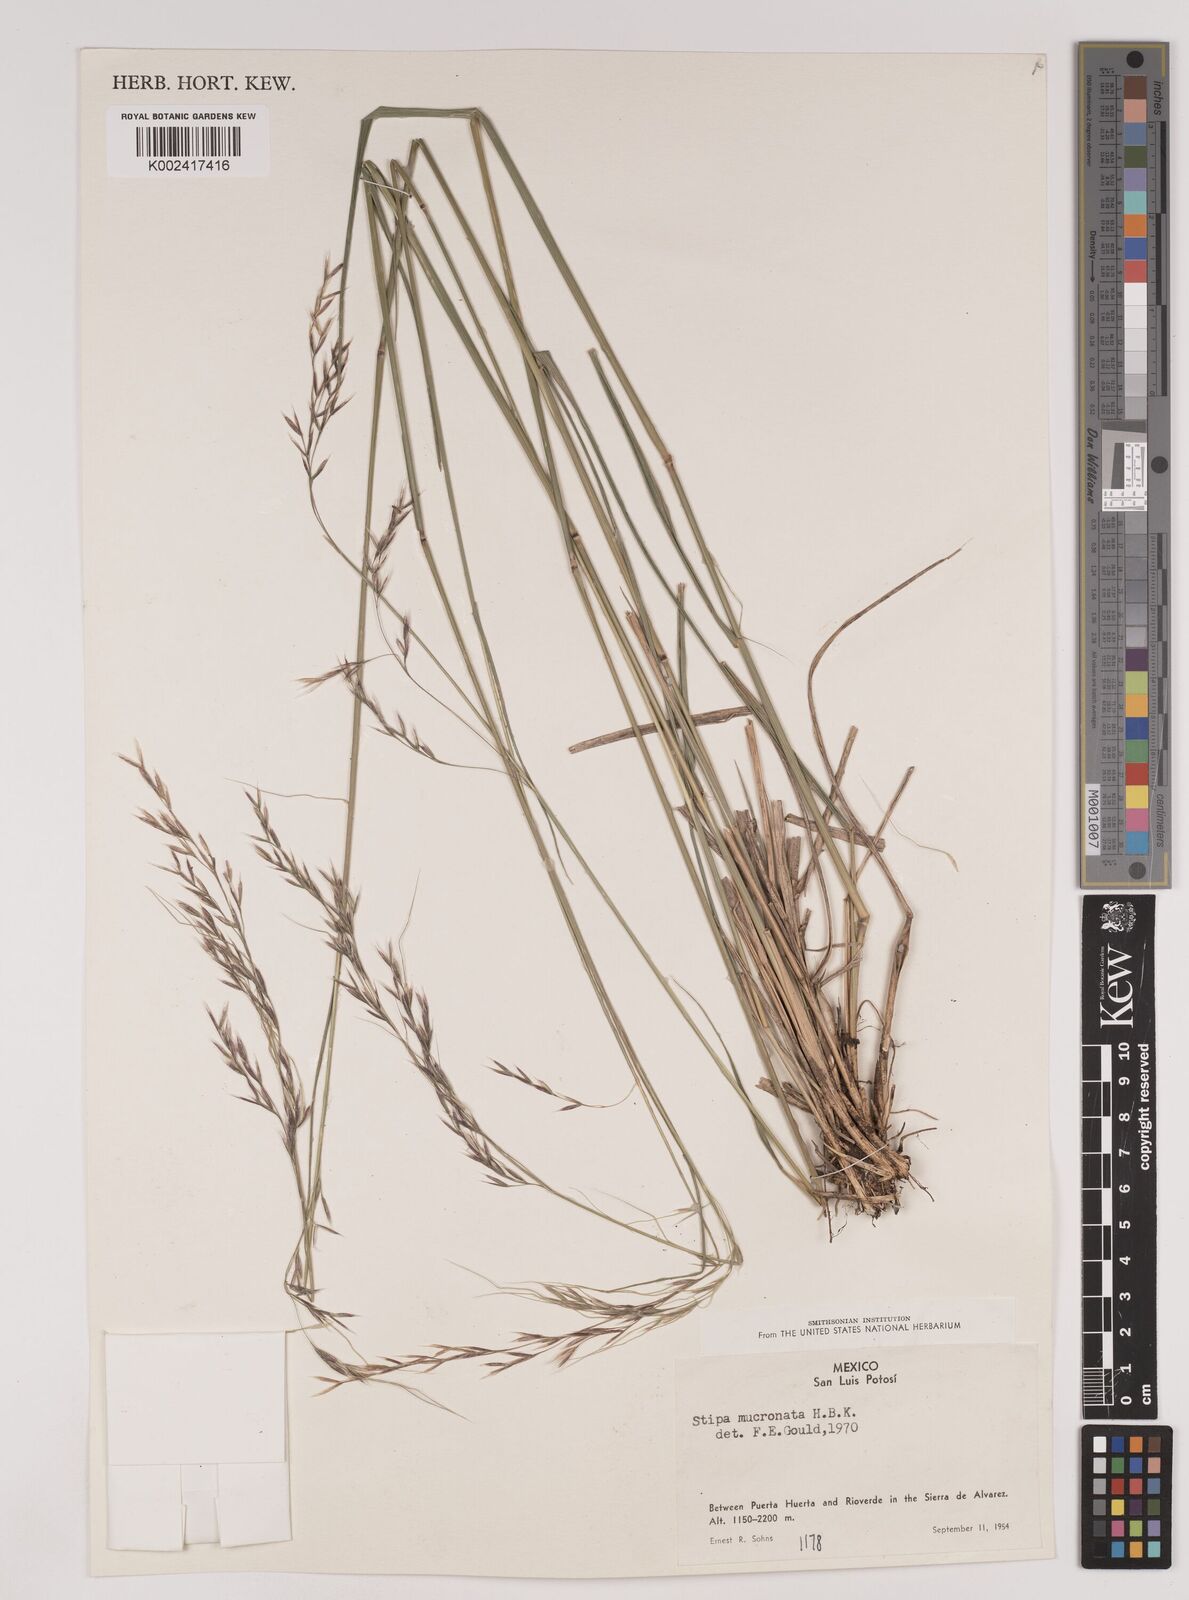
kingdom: Plantae
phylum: Tracheophyta
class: Liliopsida
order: Poales
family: Poaceae
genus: Nassella
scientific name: Nassella mucronata
